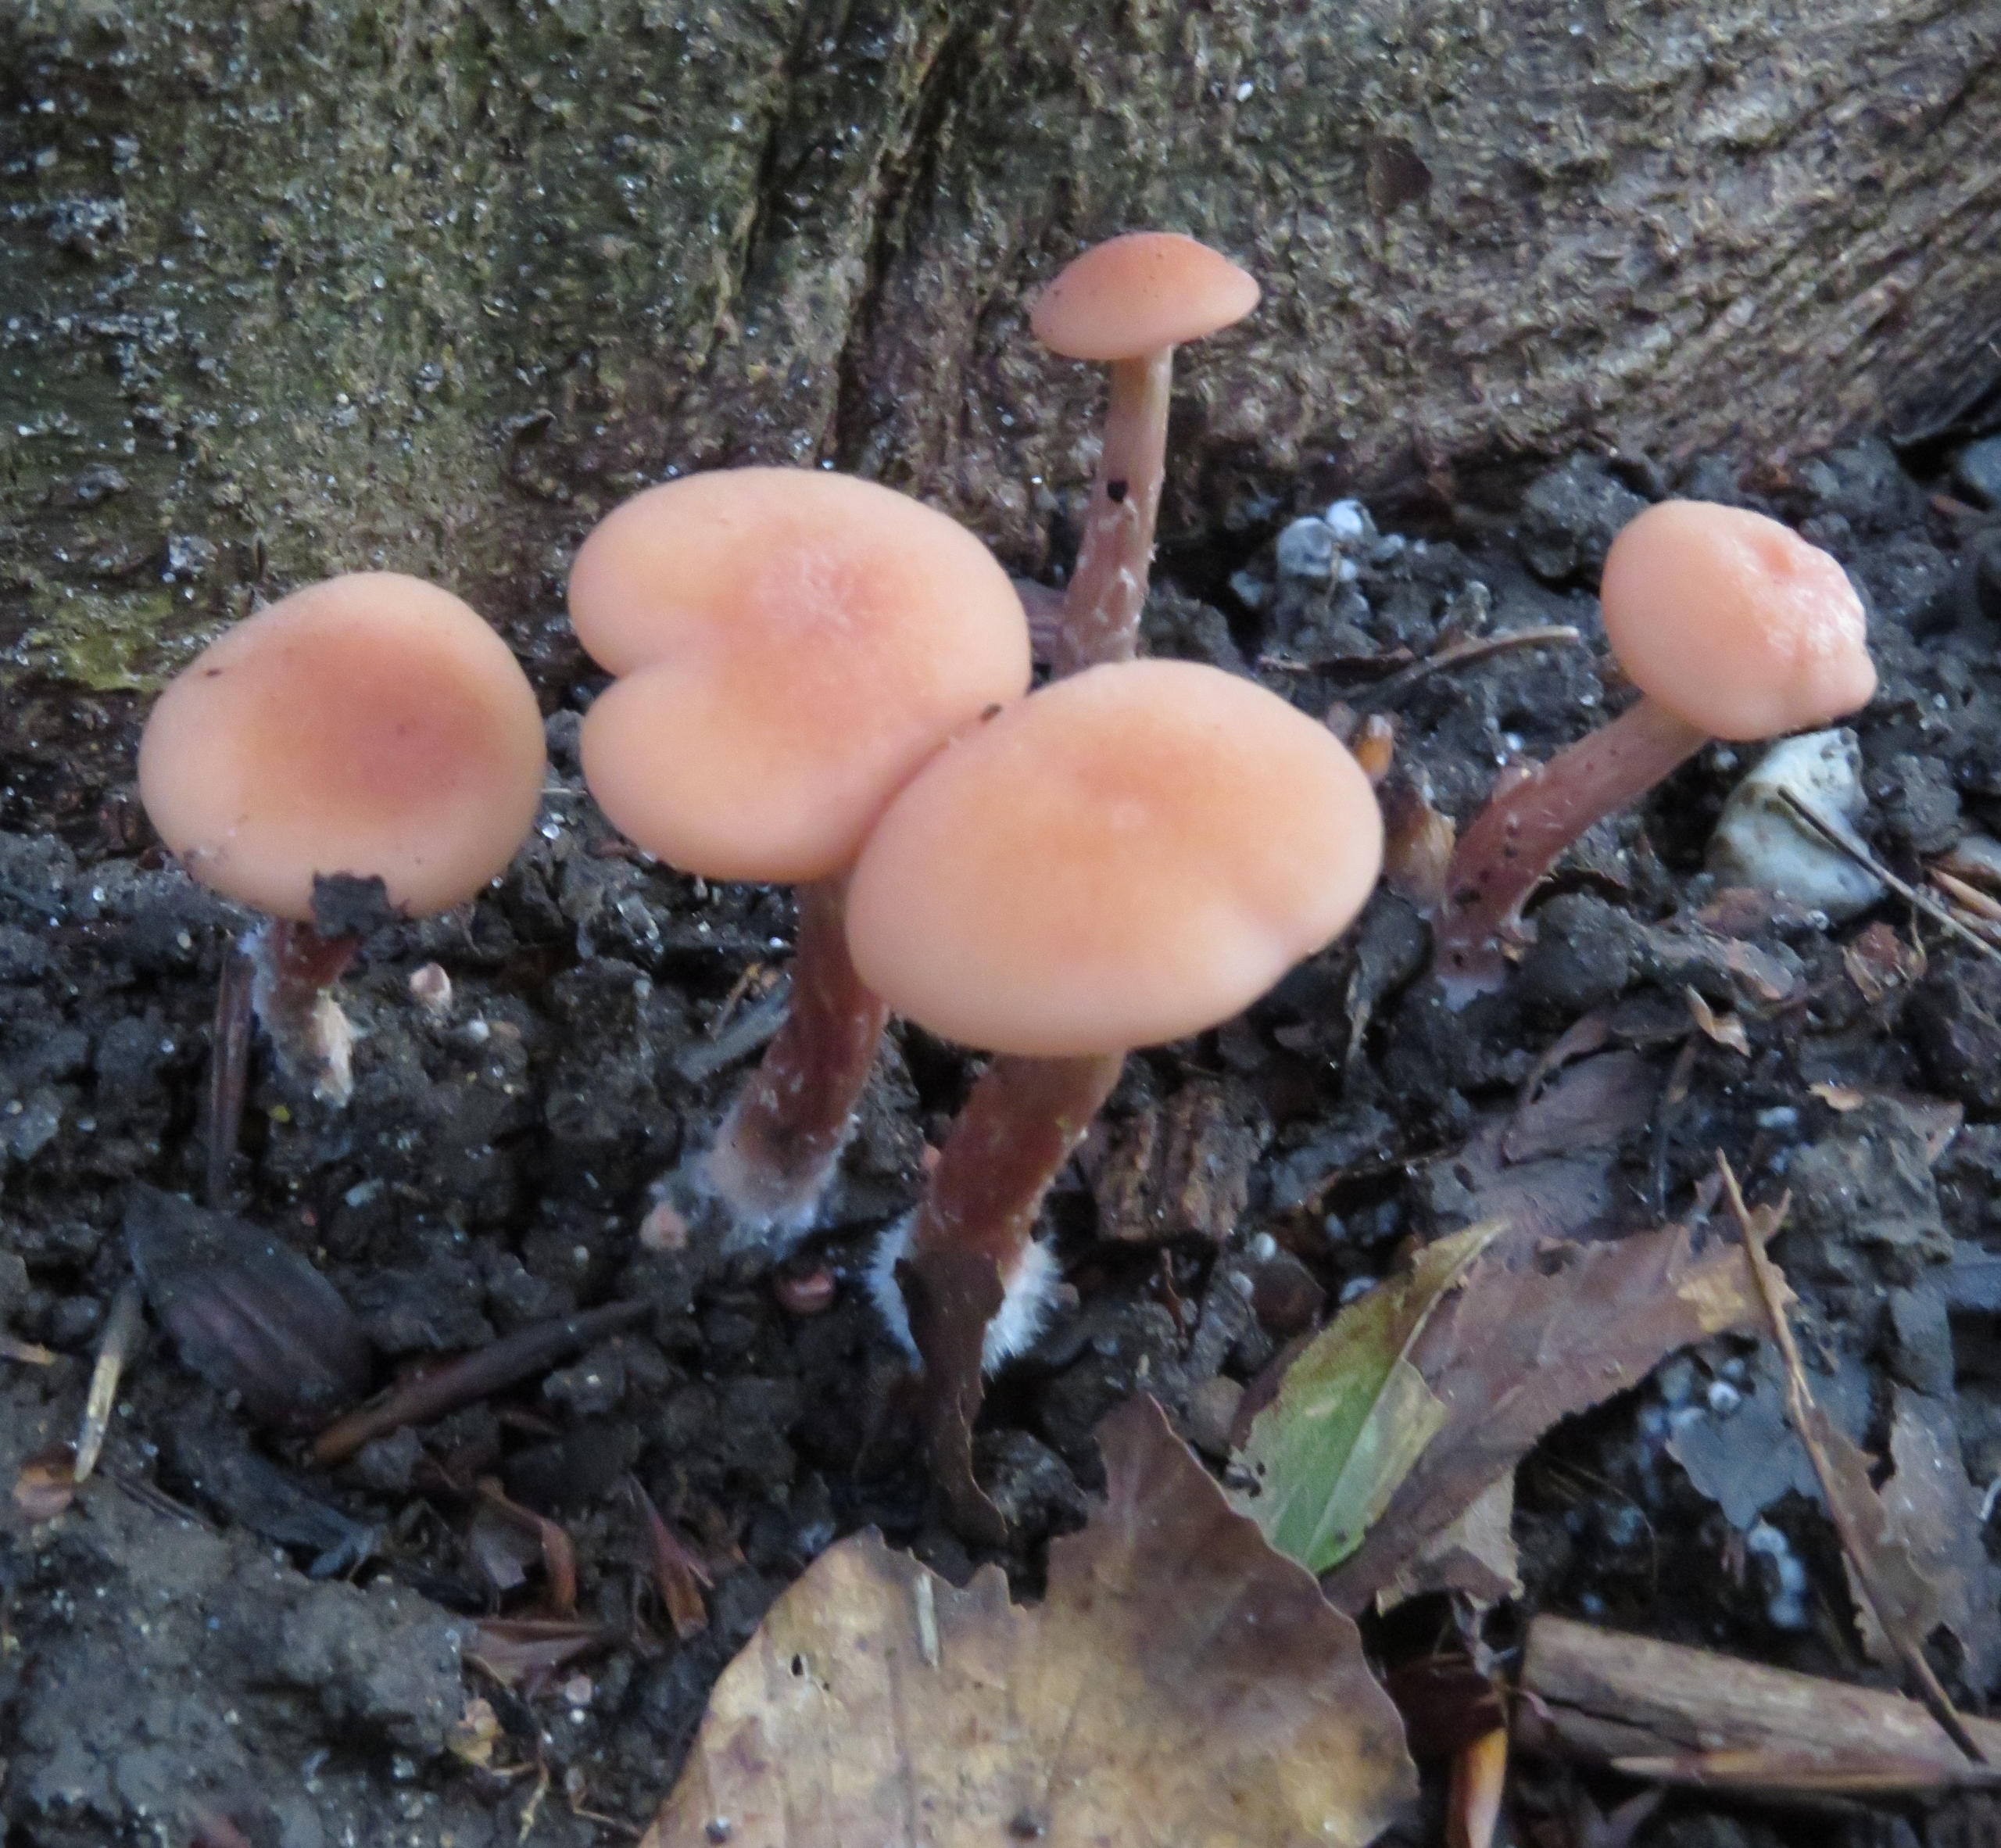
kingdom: Fungi
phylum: Basidiomycota
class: Agaricomycetes
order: Agaricales
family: Hydnangiaceae
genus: Laccaria
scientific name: Laccaria laccata
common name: Rød ametysthat
